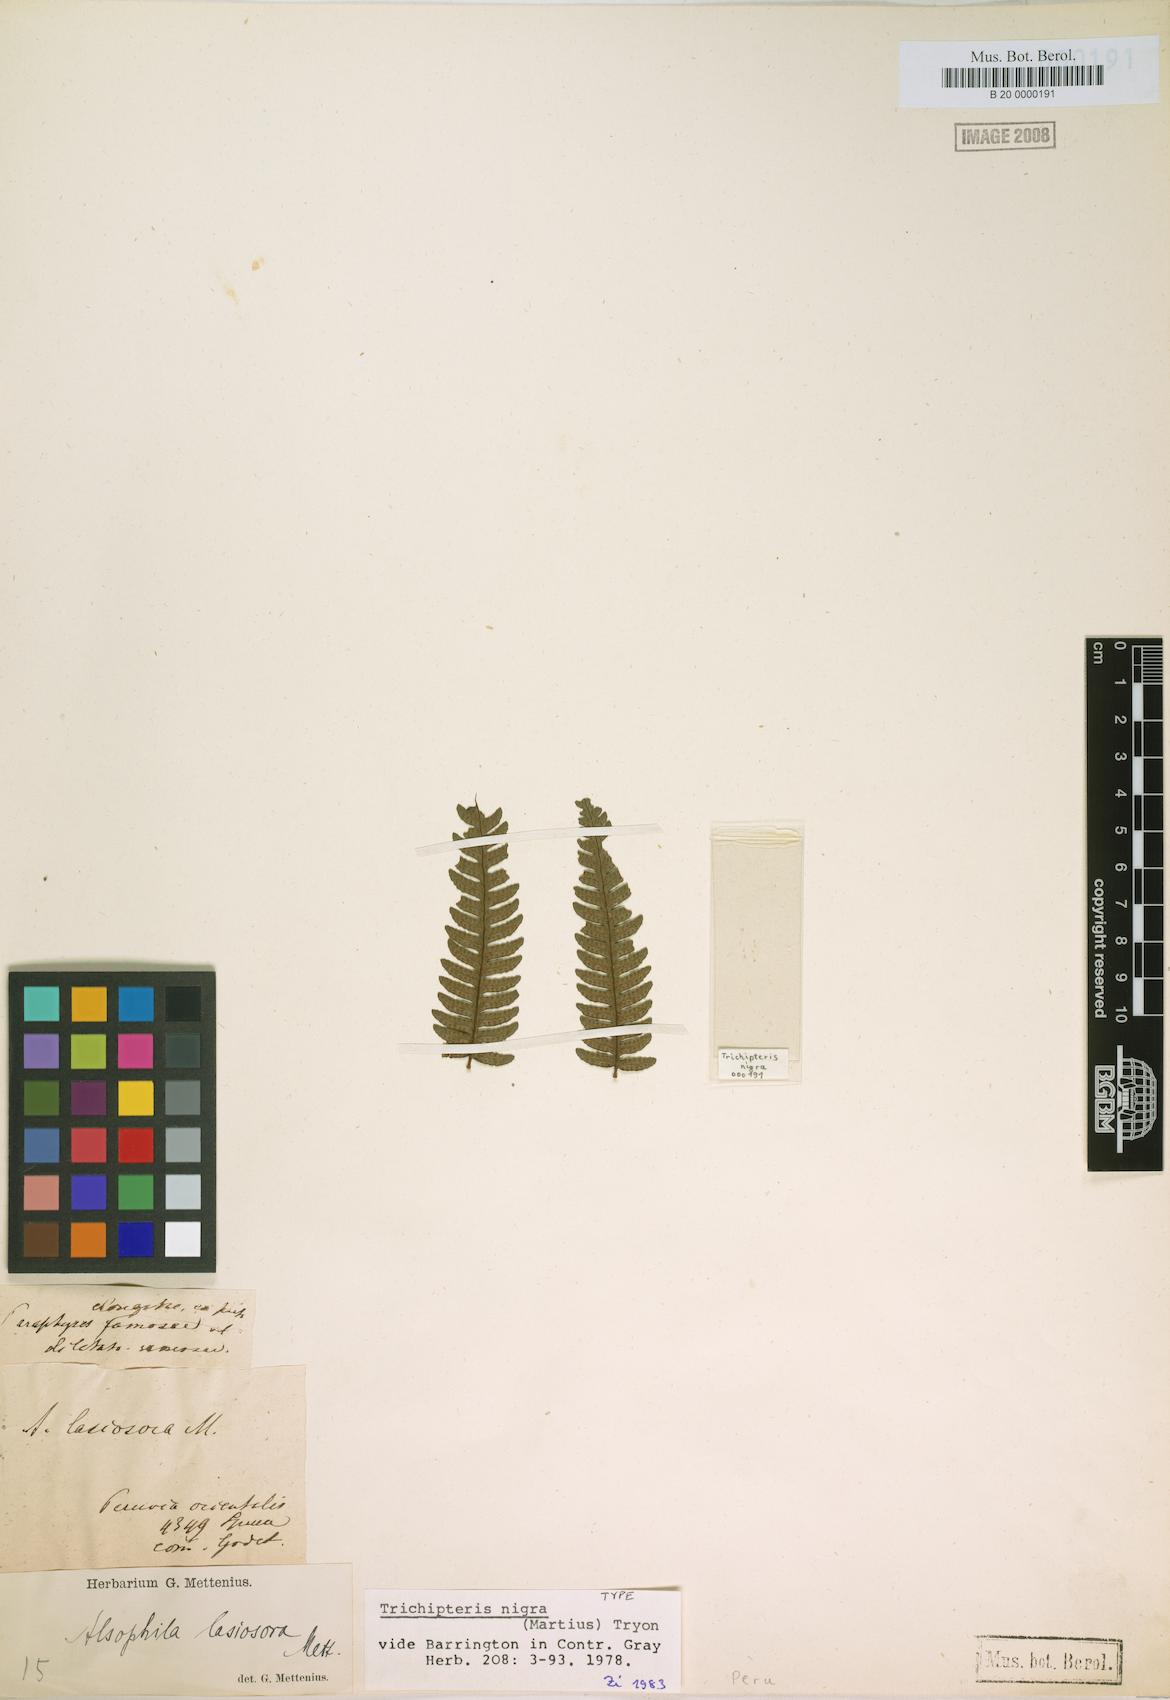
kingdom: Plantae
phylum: Tracheophyta
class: Polypodiopsida
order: Cyatheales
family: Cyatheaceae
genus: Cyathea
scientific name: Cyathea lasiosora
